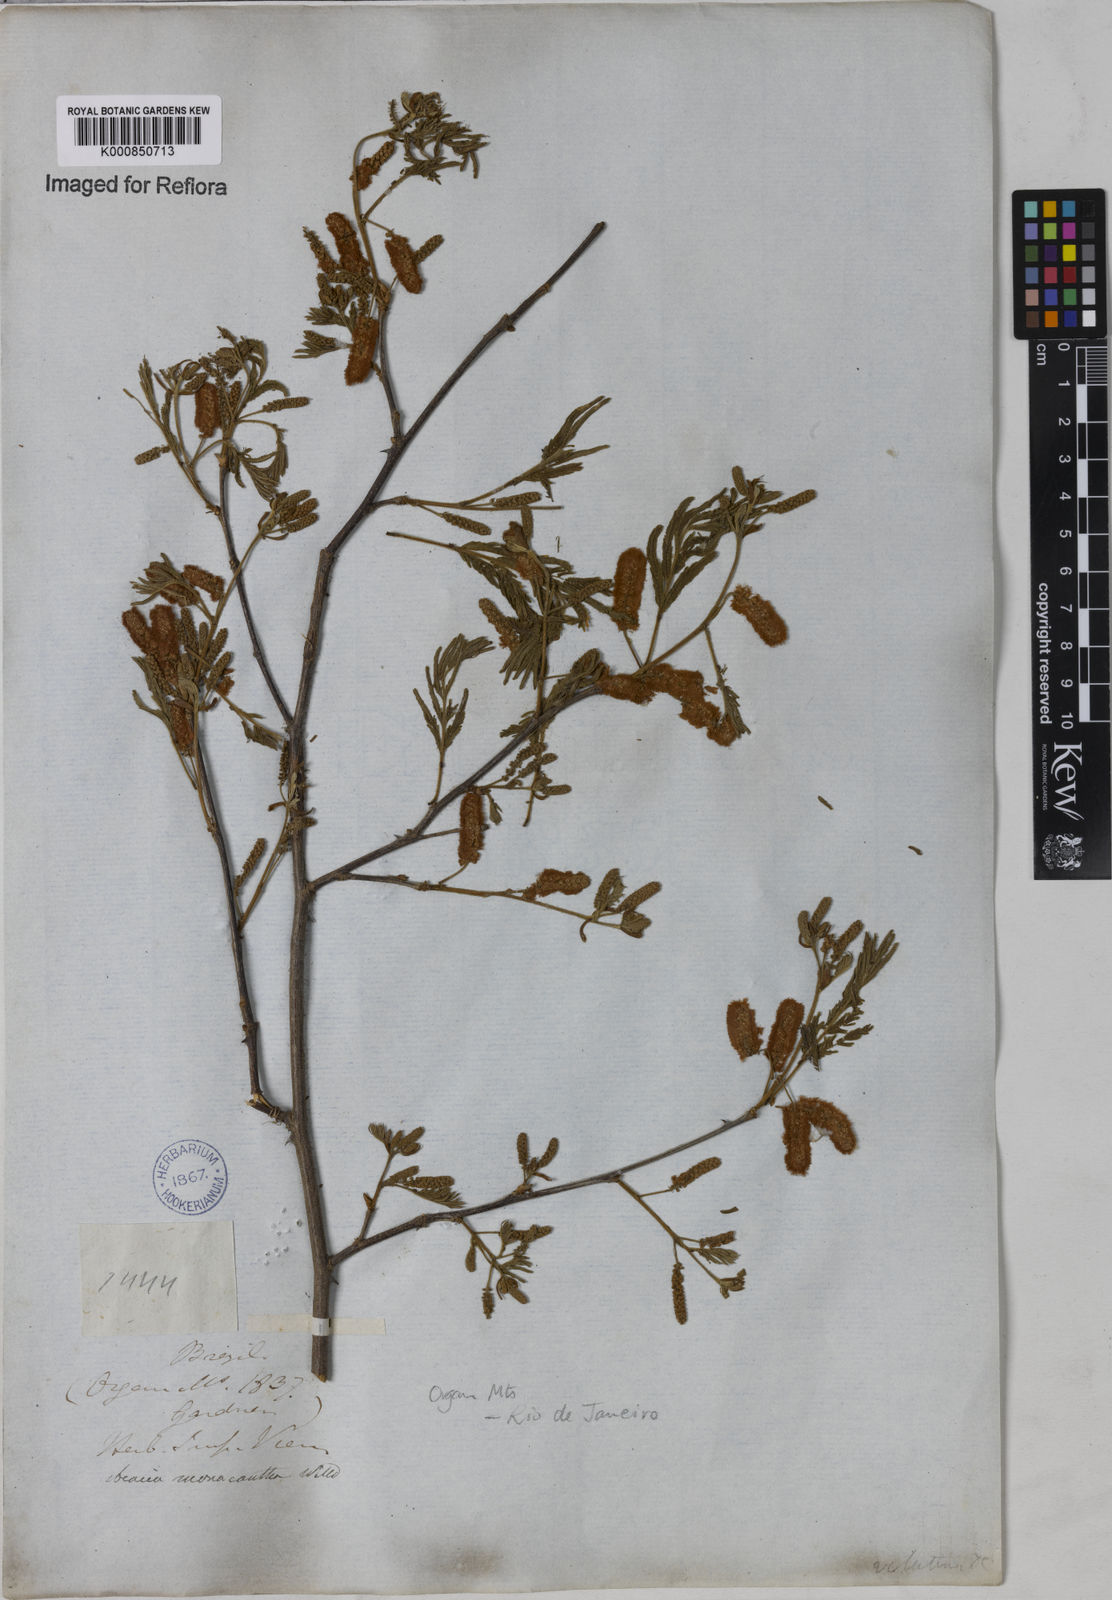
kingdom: Plantae
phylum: Tracheophyta
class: Magnoliopsida
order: Fabales
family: Fabaceae
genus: Senegalia
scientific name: Senegalia monacantha
